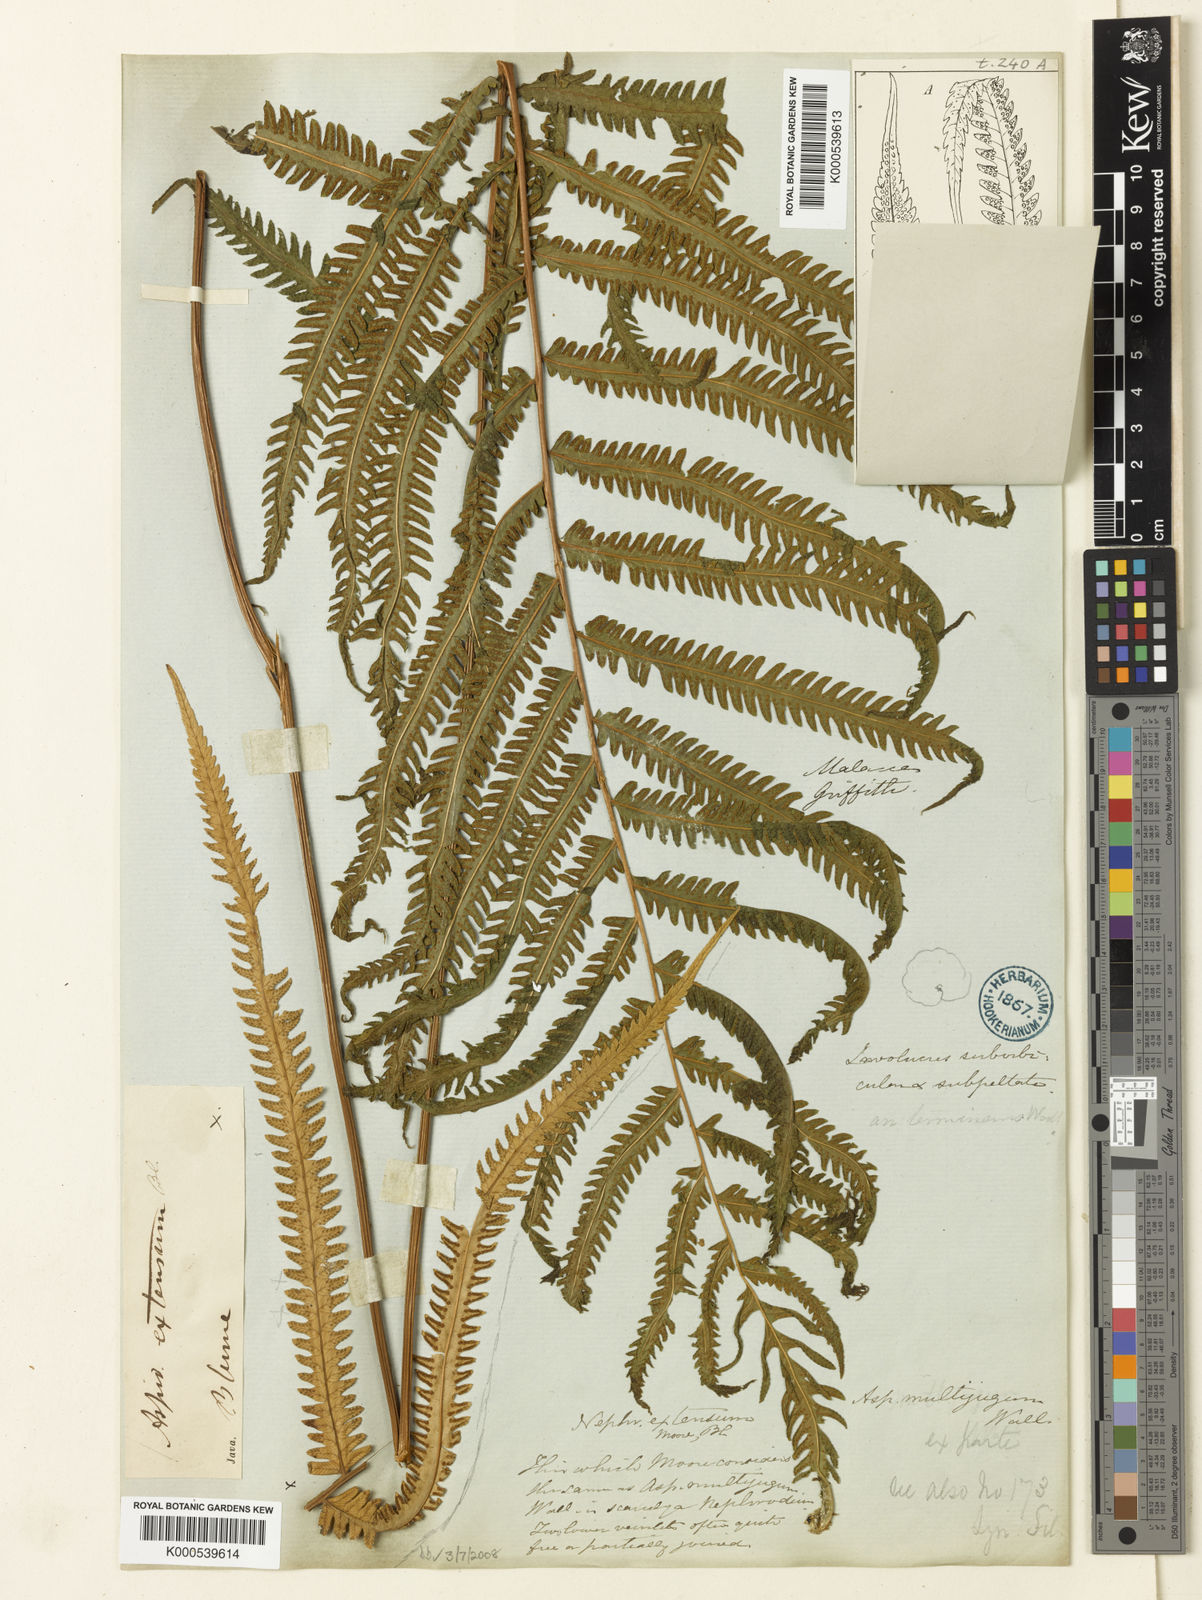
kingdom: Plantae
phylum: Tracheophyta
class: Polypodiopsida
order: Polypodiales
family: Thelypteridaceae
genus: Amblovenatum
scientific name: Amblovenatum opulentum
